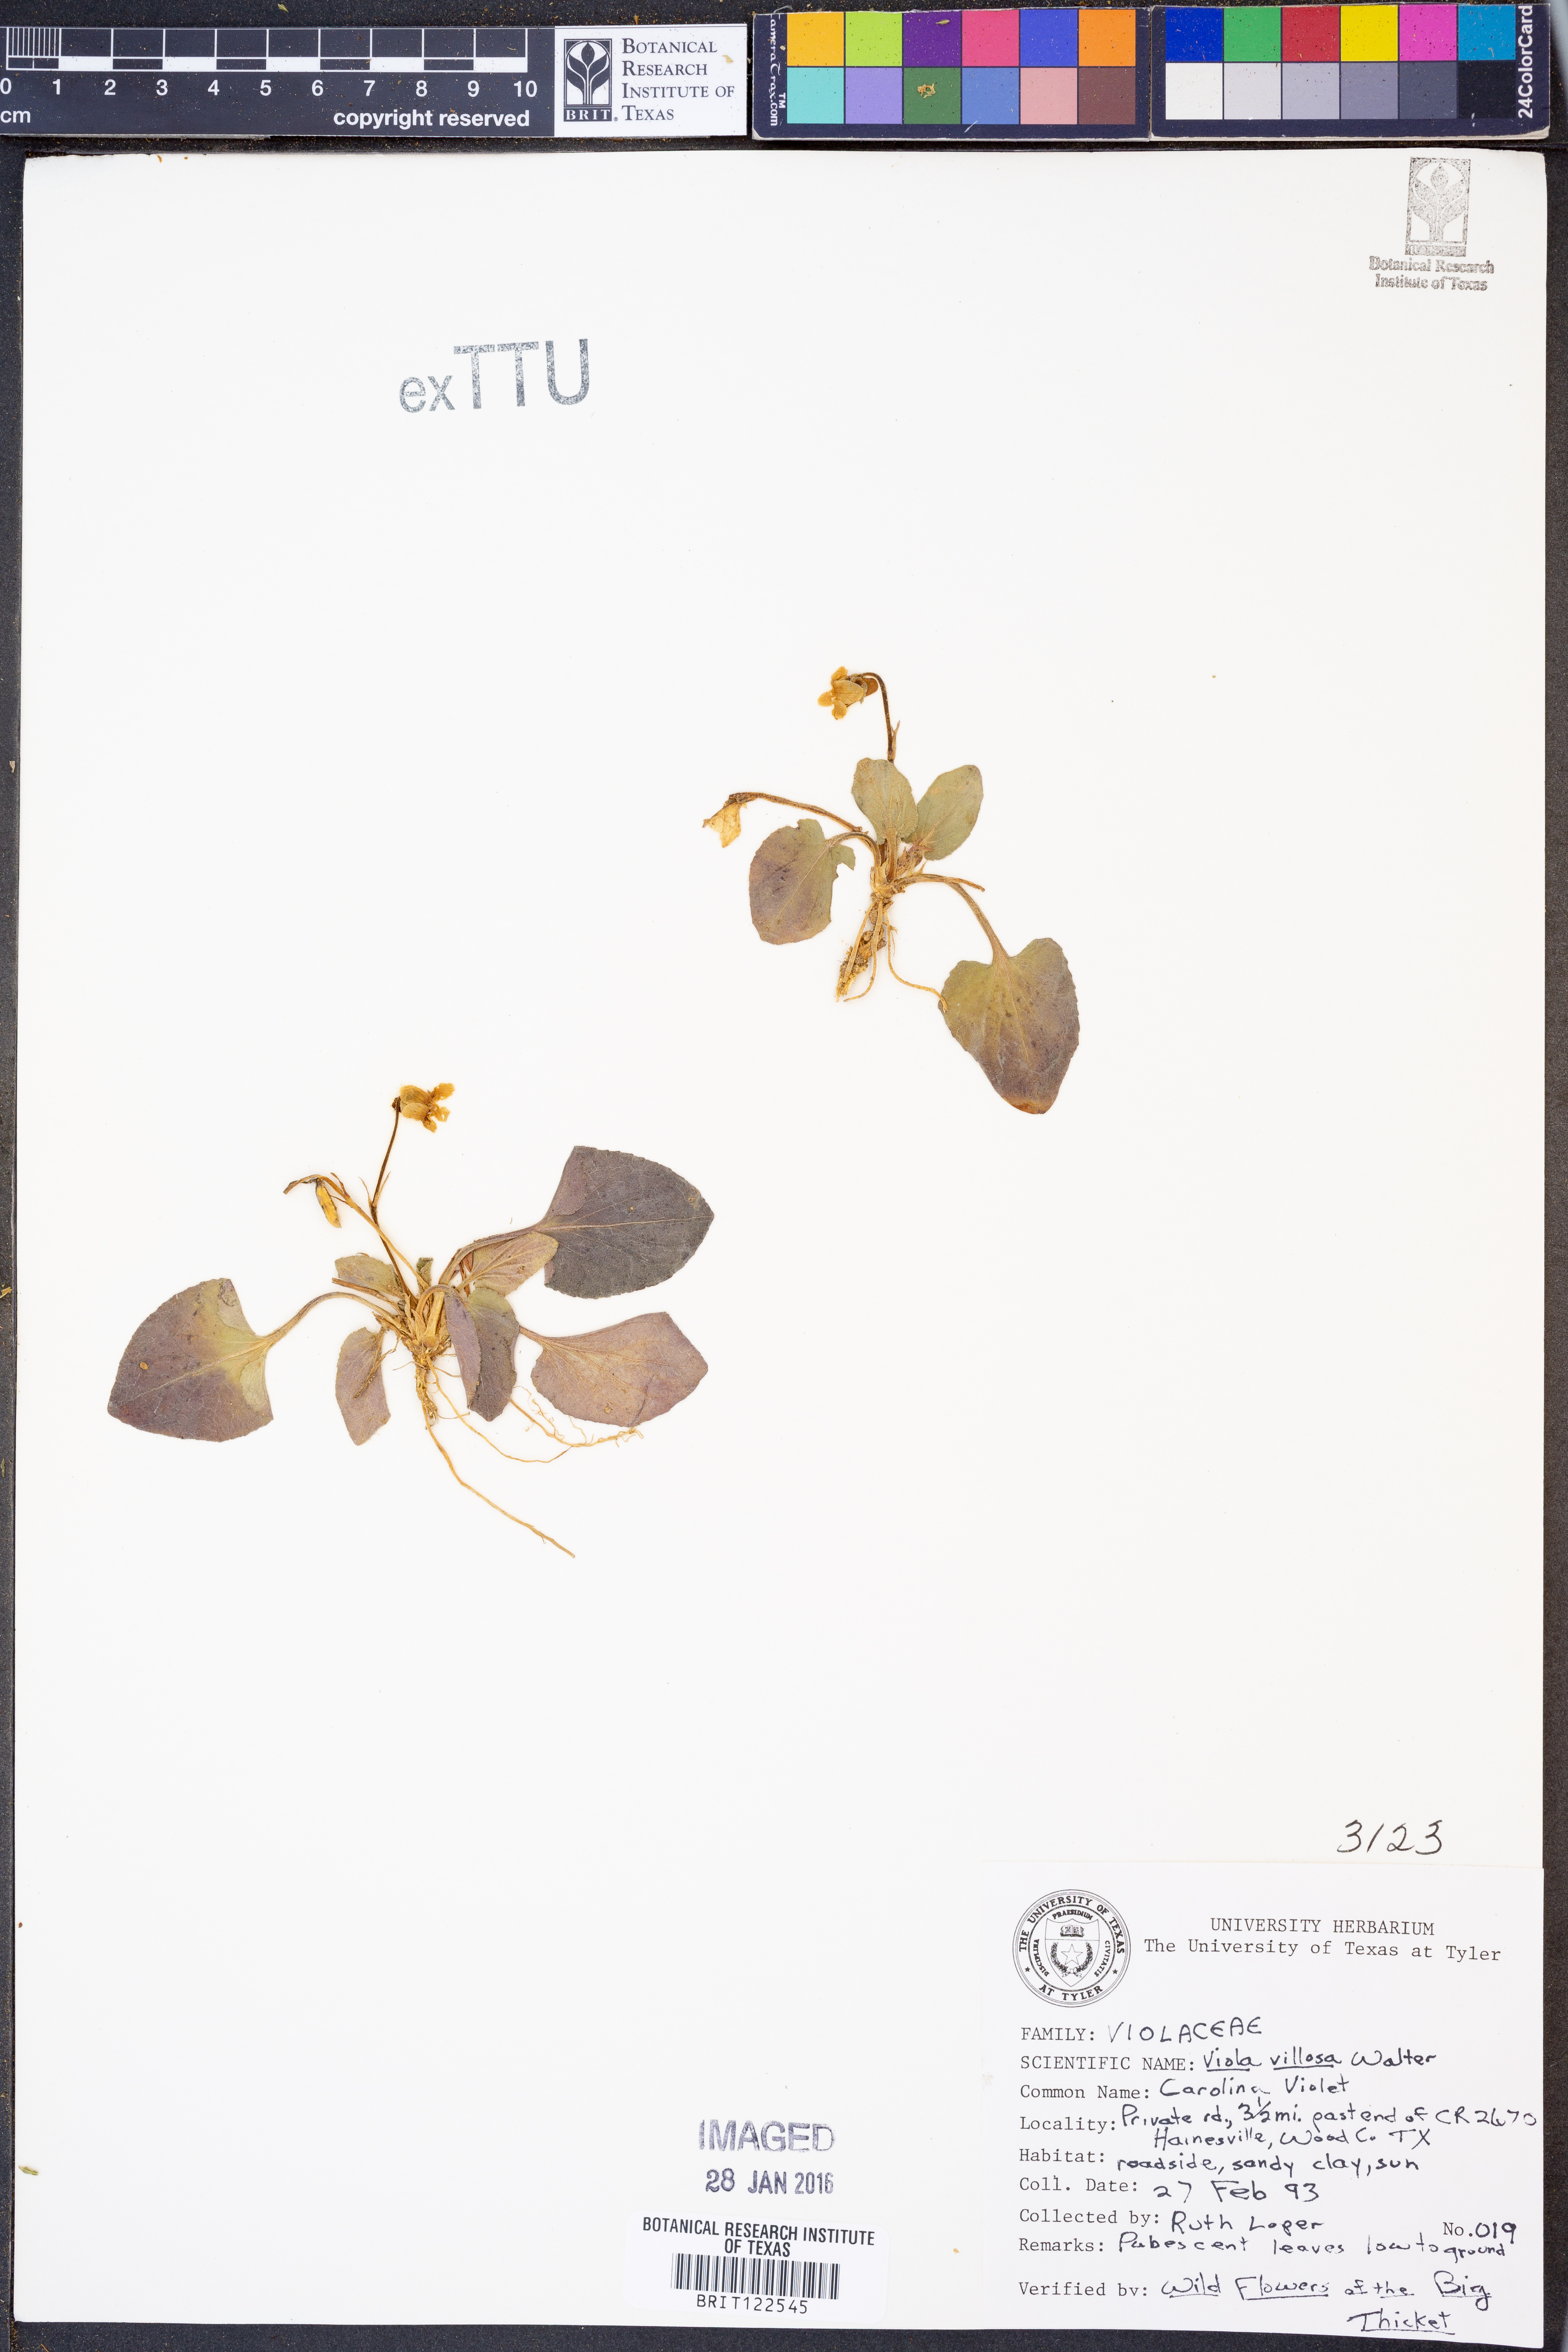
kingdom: Plantae
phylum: Tracheophyta
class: Magnoliopsida
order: Malpighiales
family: Violaceae
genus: Viola
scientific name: Viola villosa
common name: Carolina violet
